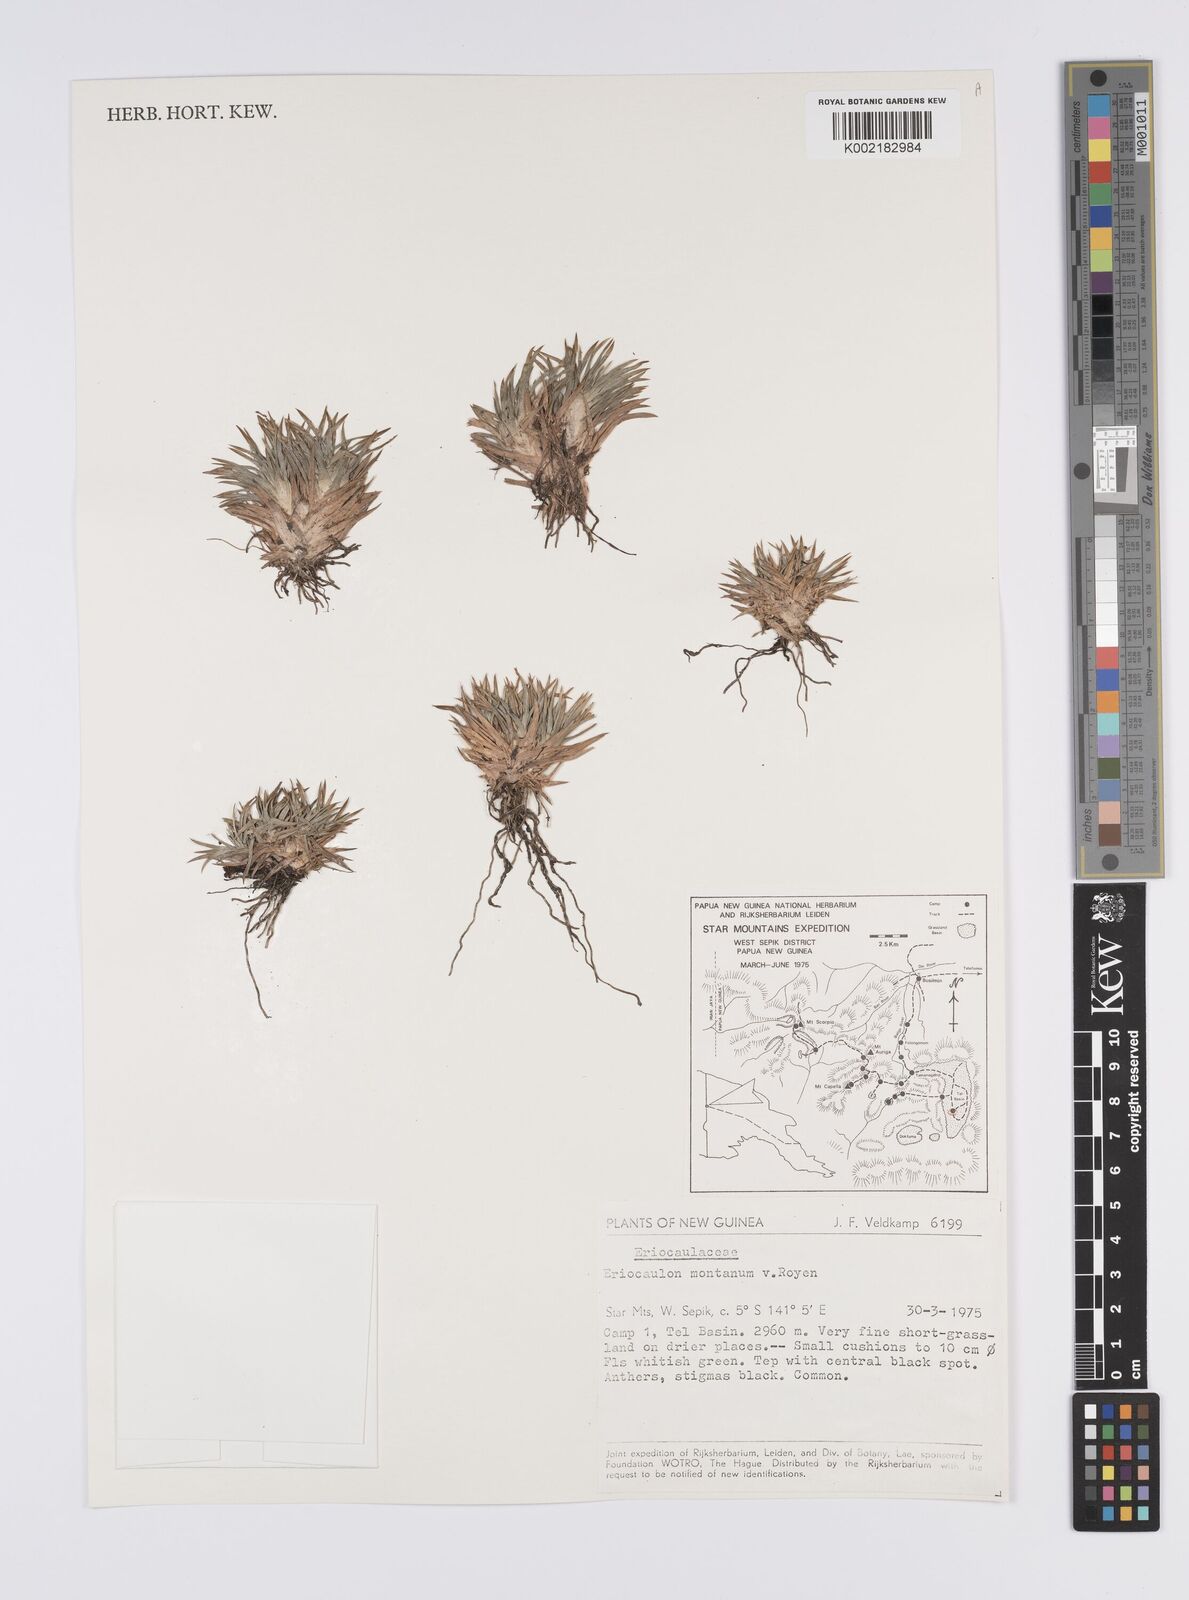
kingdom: Plantae
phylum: Tracheophyta
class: Liliopsida
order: Poales
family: Eriocaulaceae
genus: Eriocaulon
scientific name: Eriocaulon montanum
